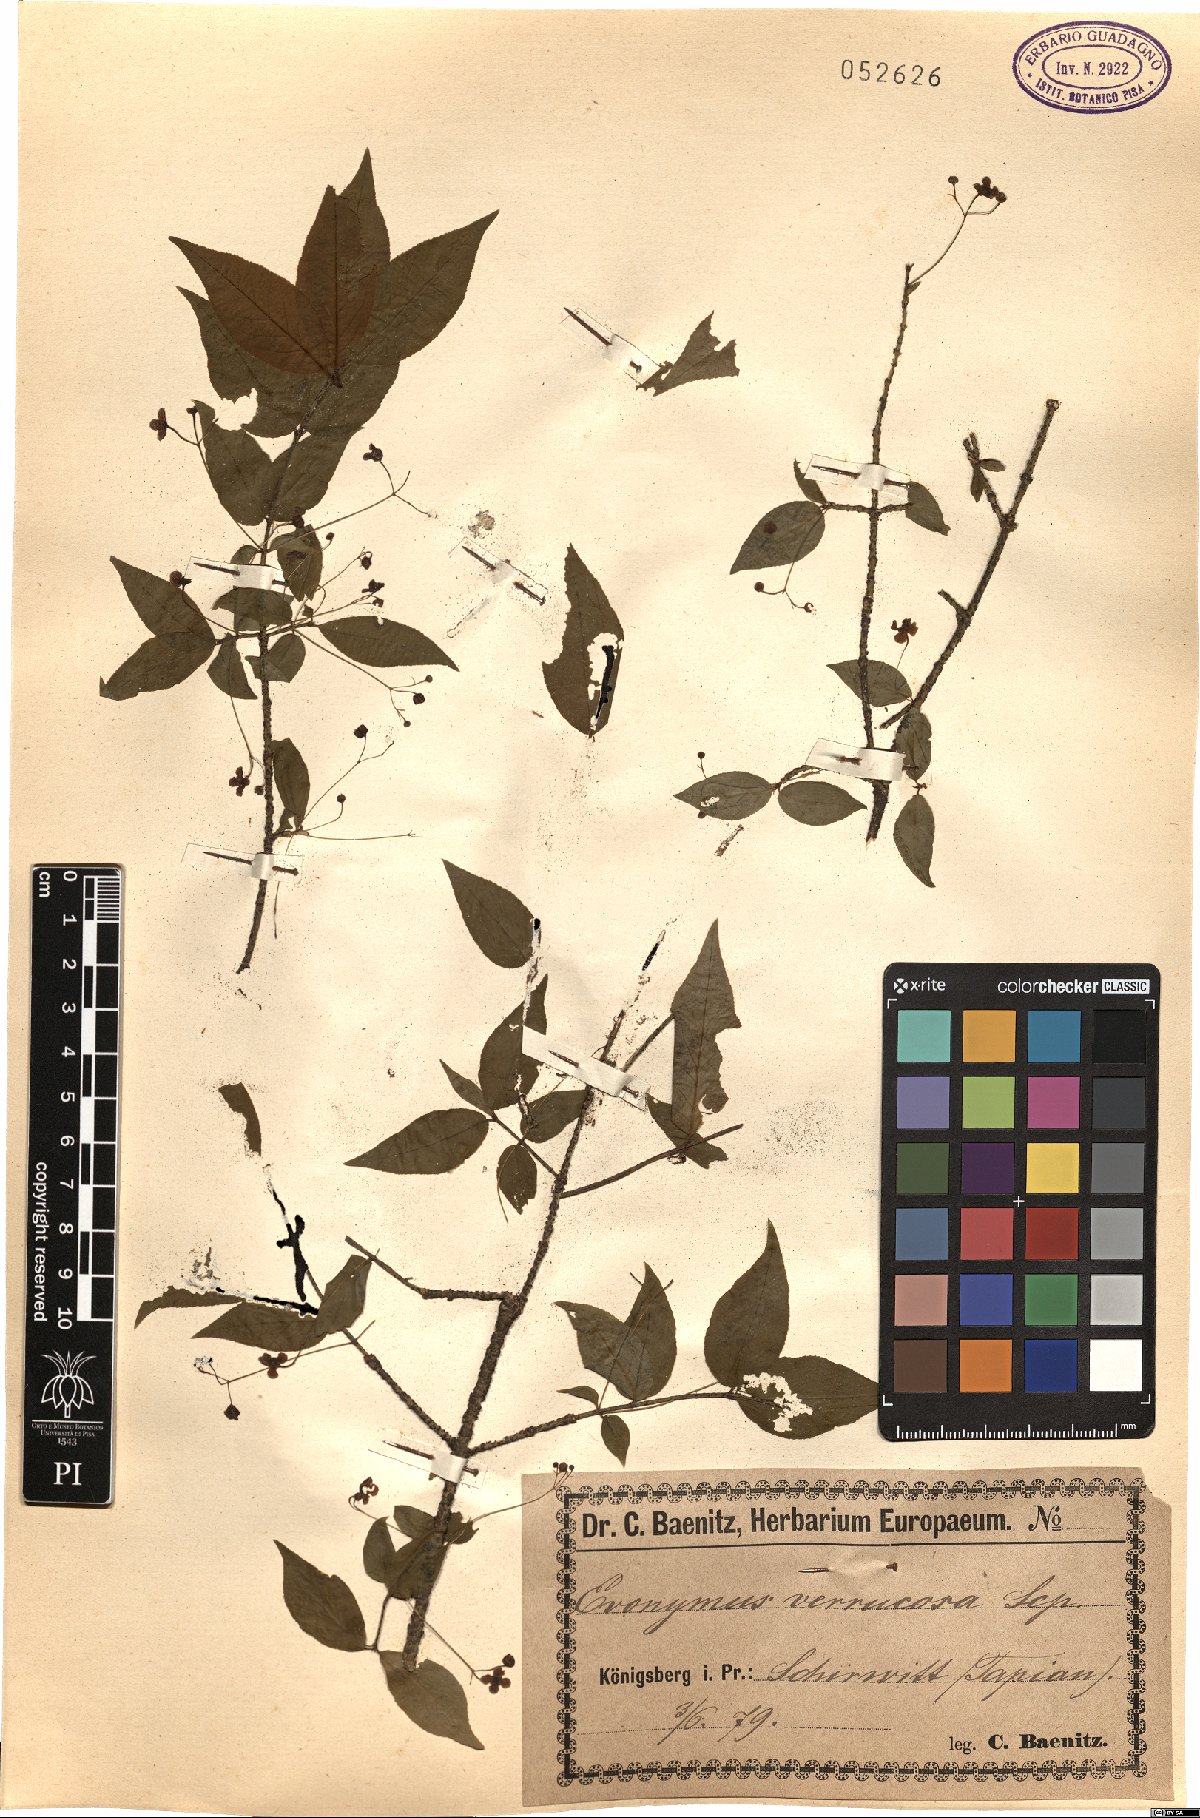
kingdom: Plantae
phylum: Tracheophyta
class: Magnoliopsida
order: Celastrales
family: Celastraceae
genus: Euonymus
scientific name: Euonymus verrucosus
